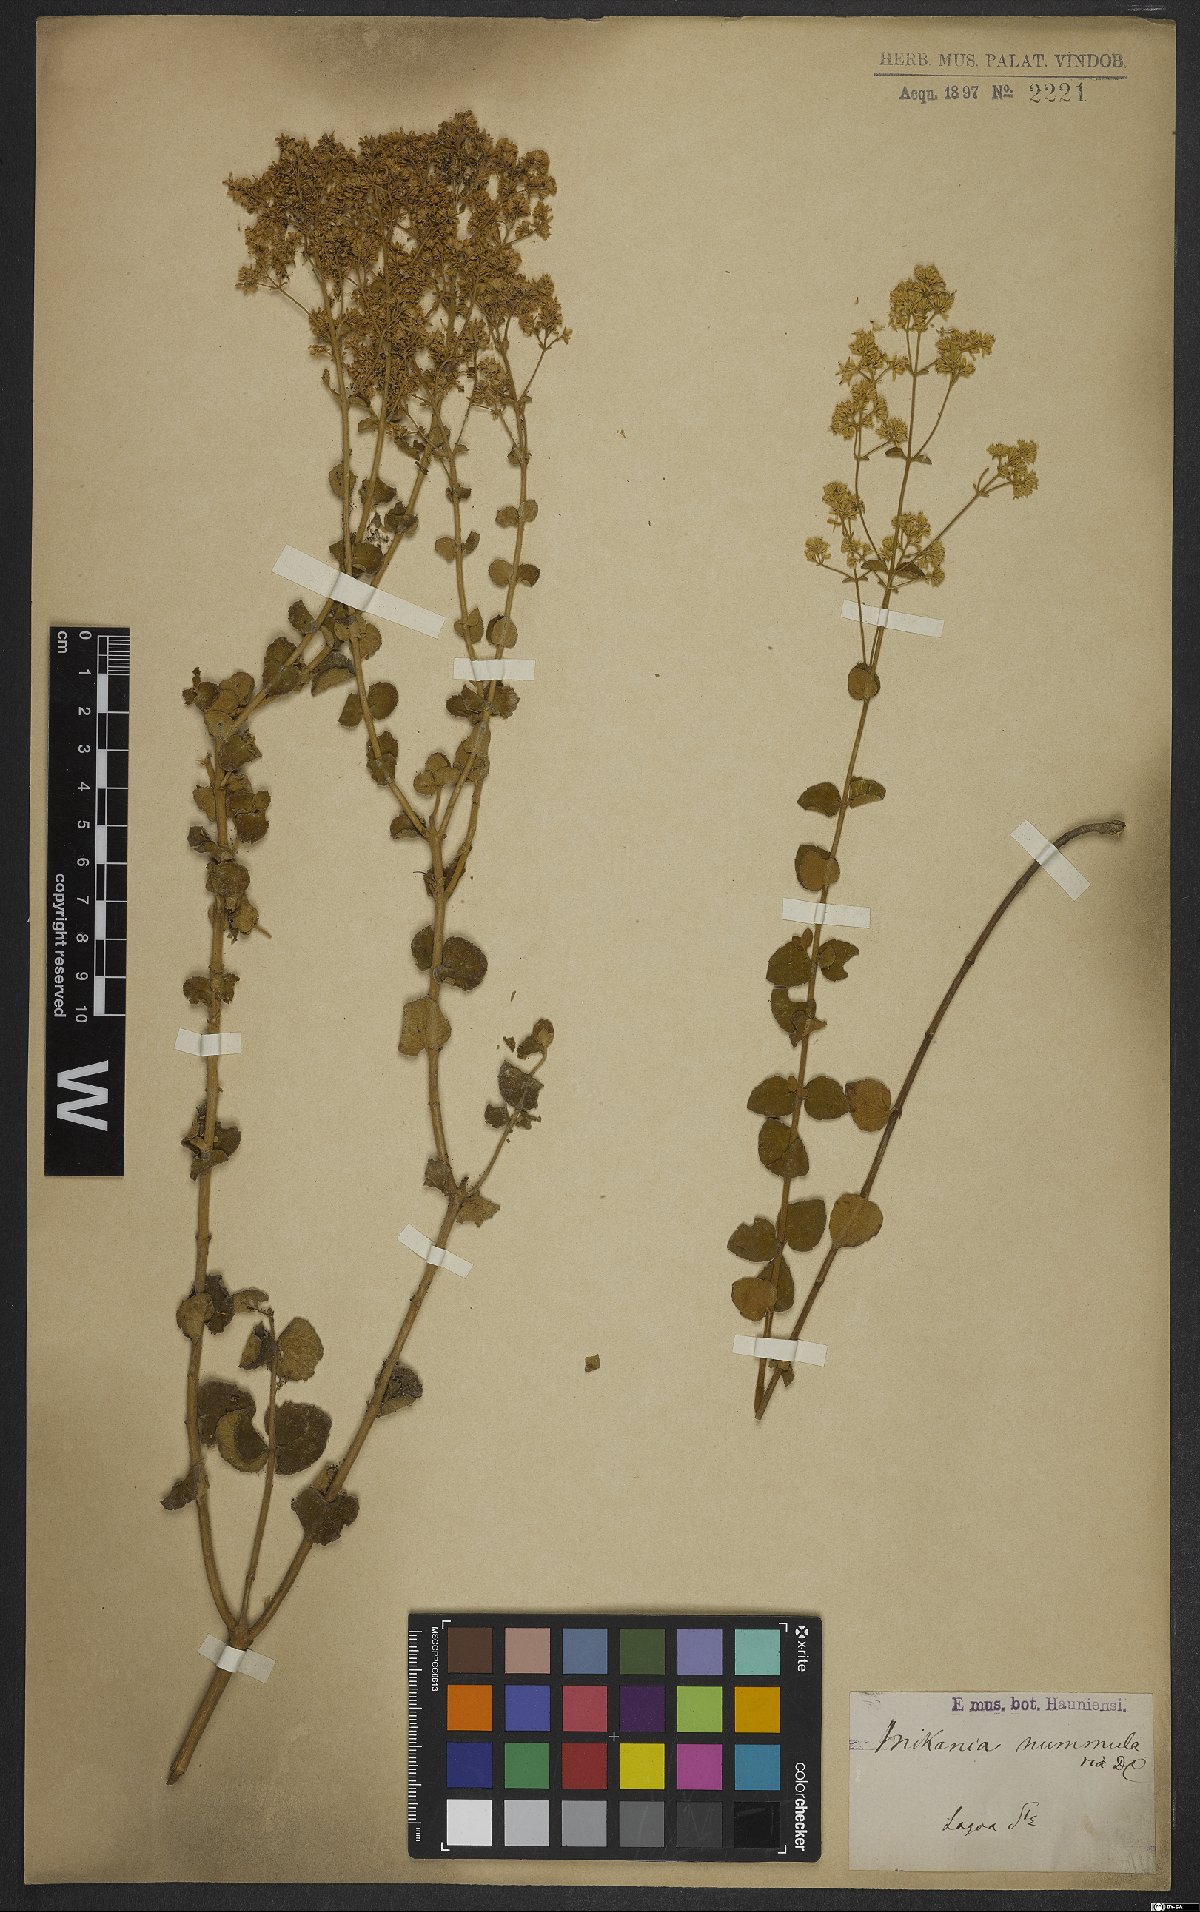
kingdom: Plantae
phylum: Tracheophyta
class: Magnoliopsida
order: Asterales
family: Asteraceae
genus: Mikania
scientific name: Mikania nummularia
